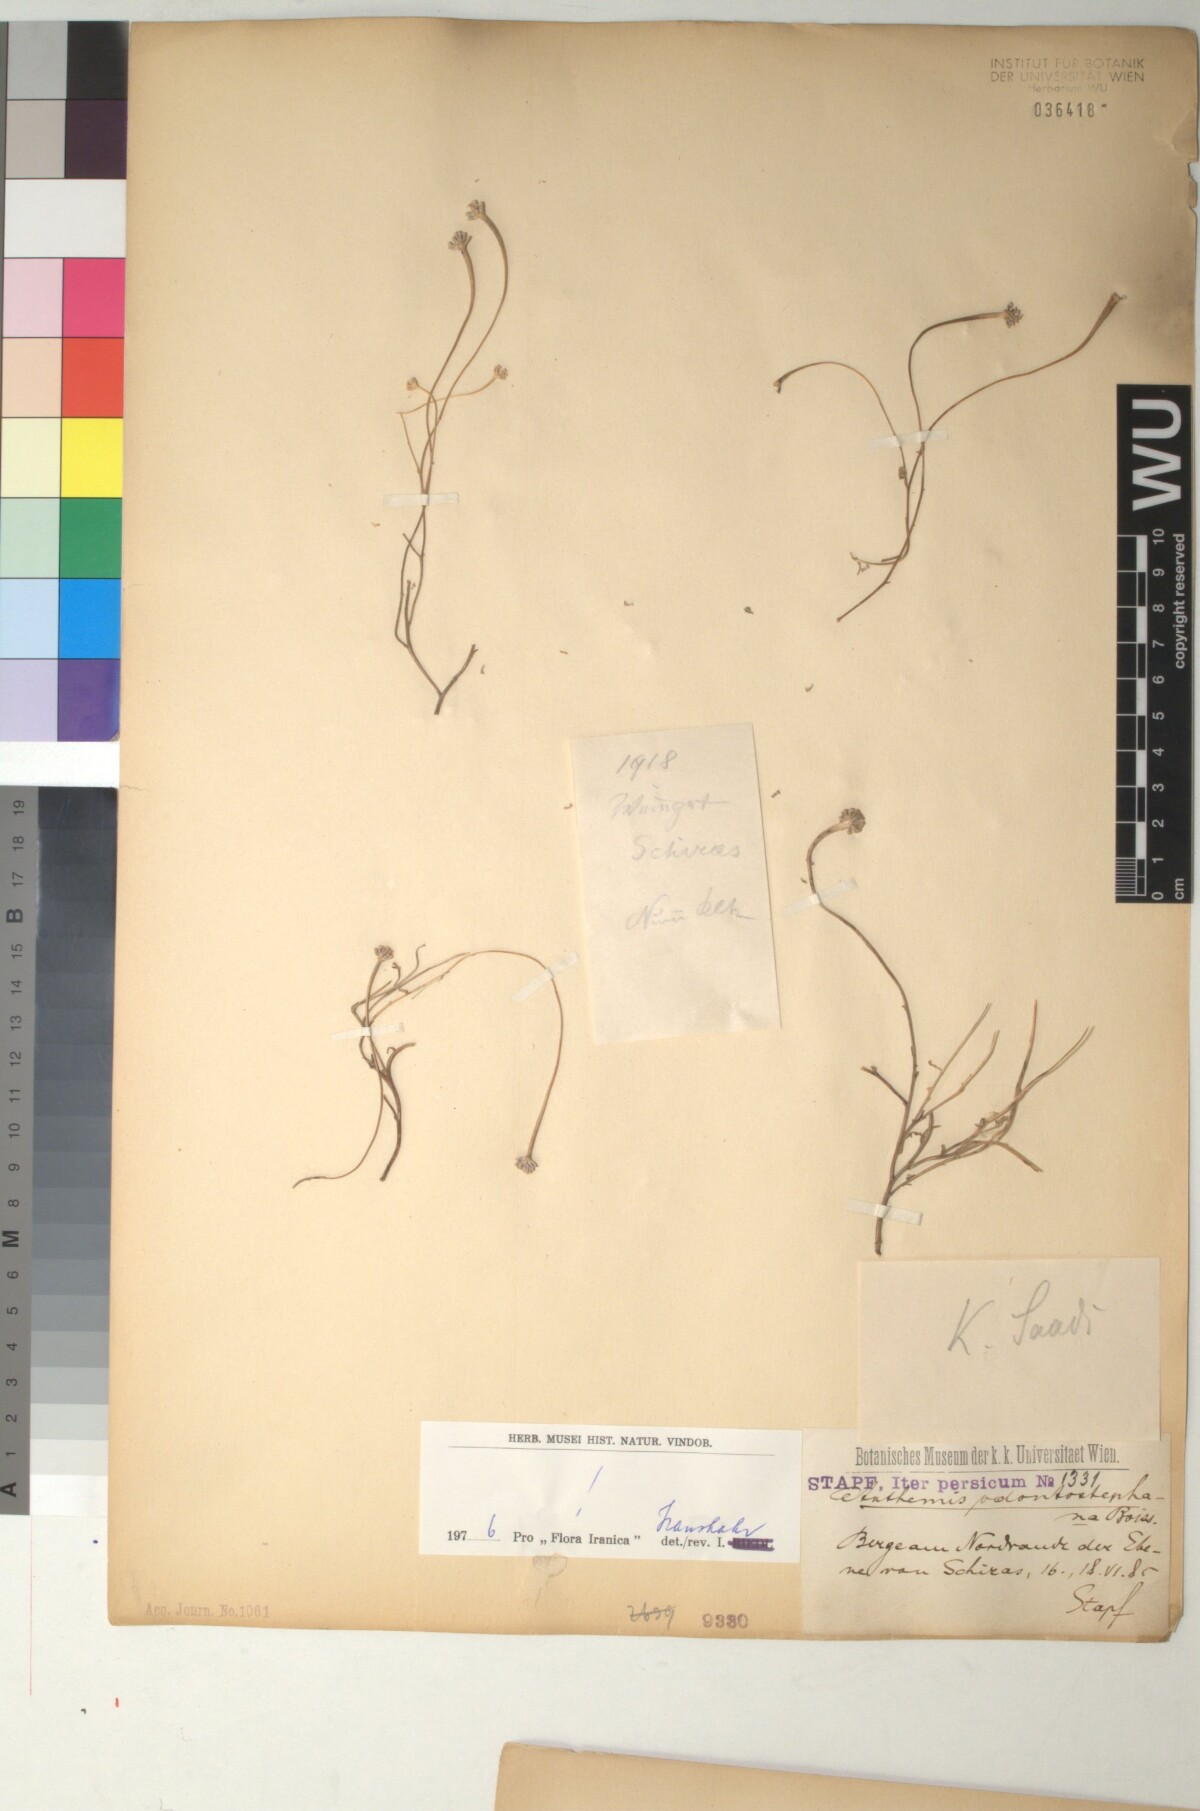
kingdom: Plantae
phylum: Tracheophyta
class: Magnoliopsida
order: Asterales
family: Asteraceae
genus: Anthemis
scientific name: Anthemis odontostephana
